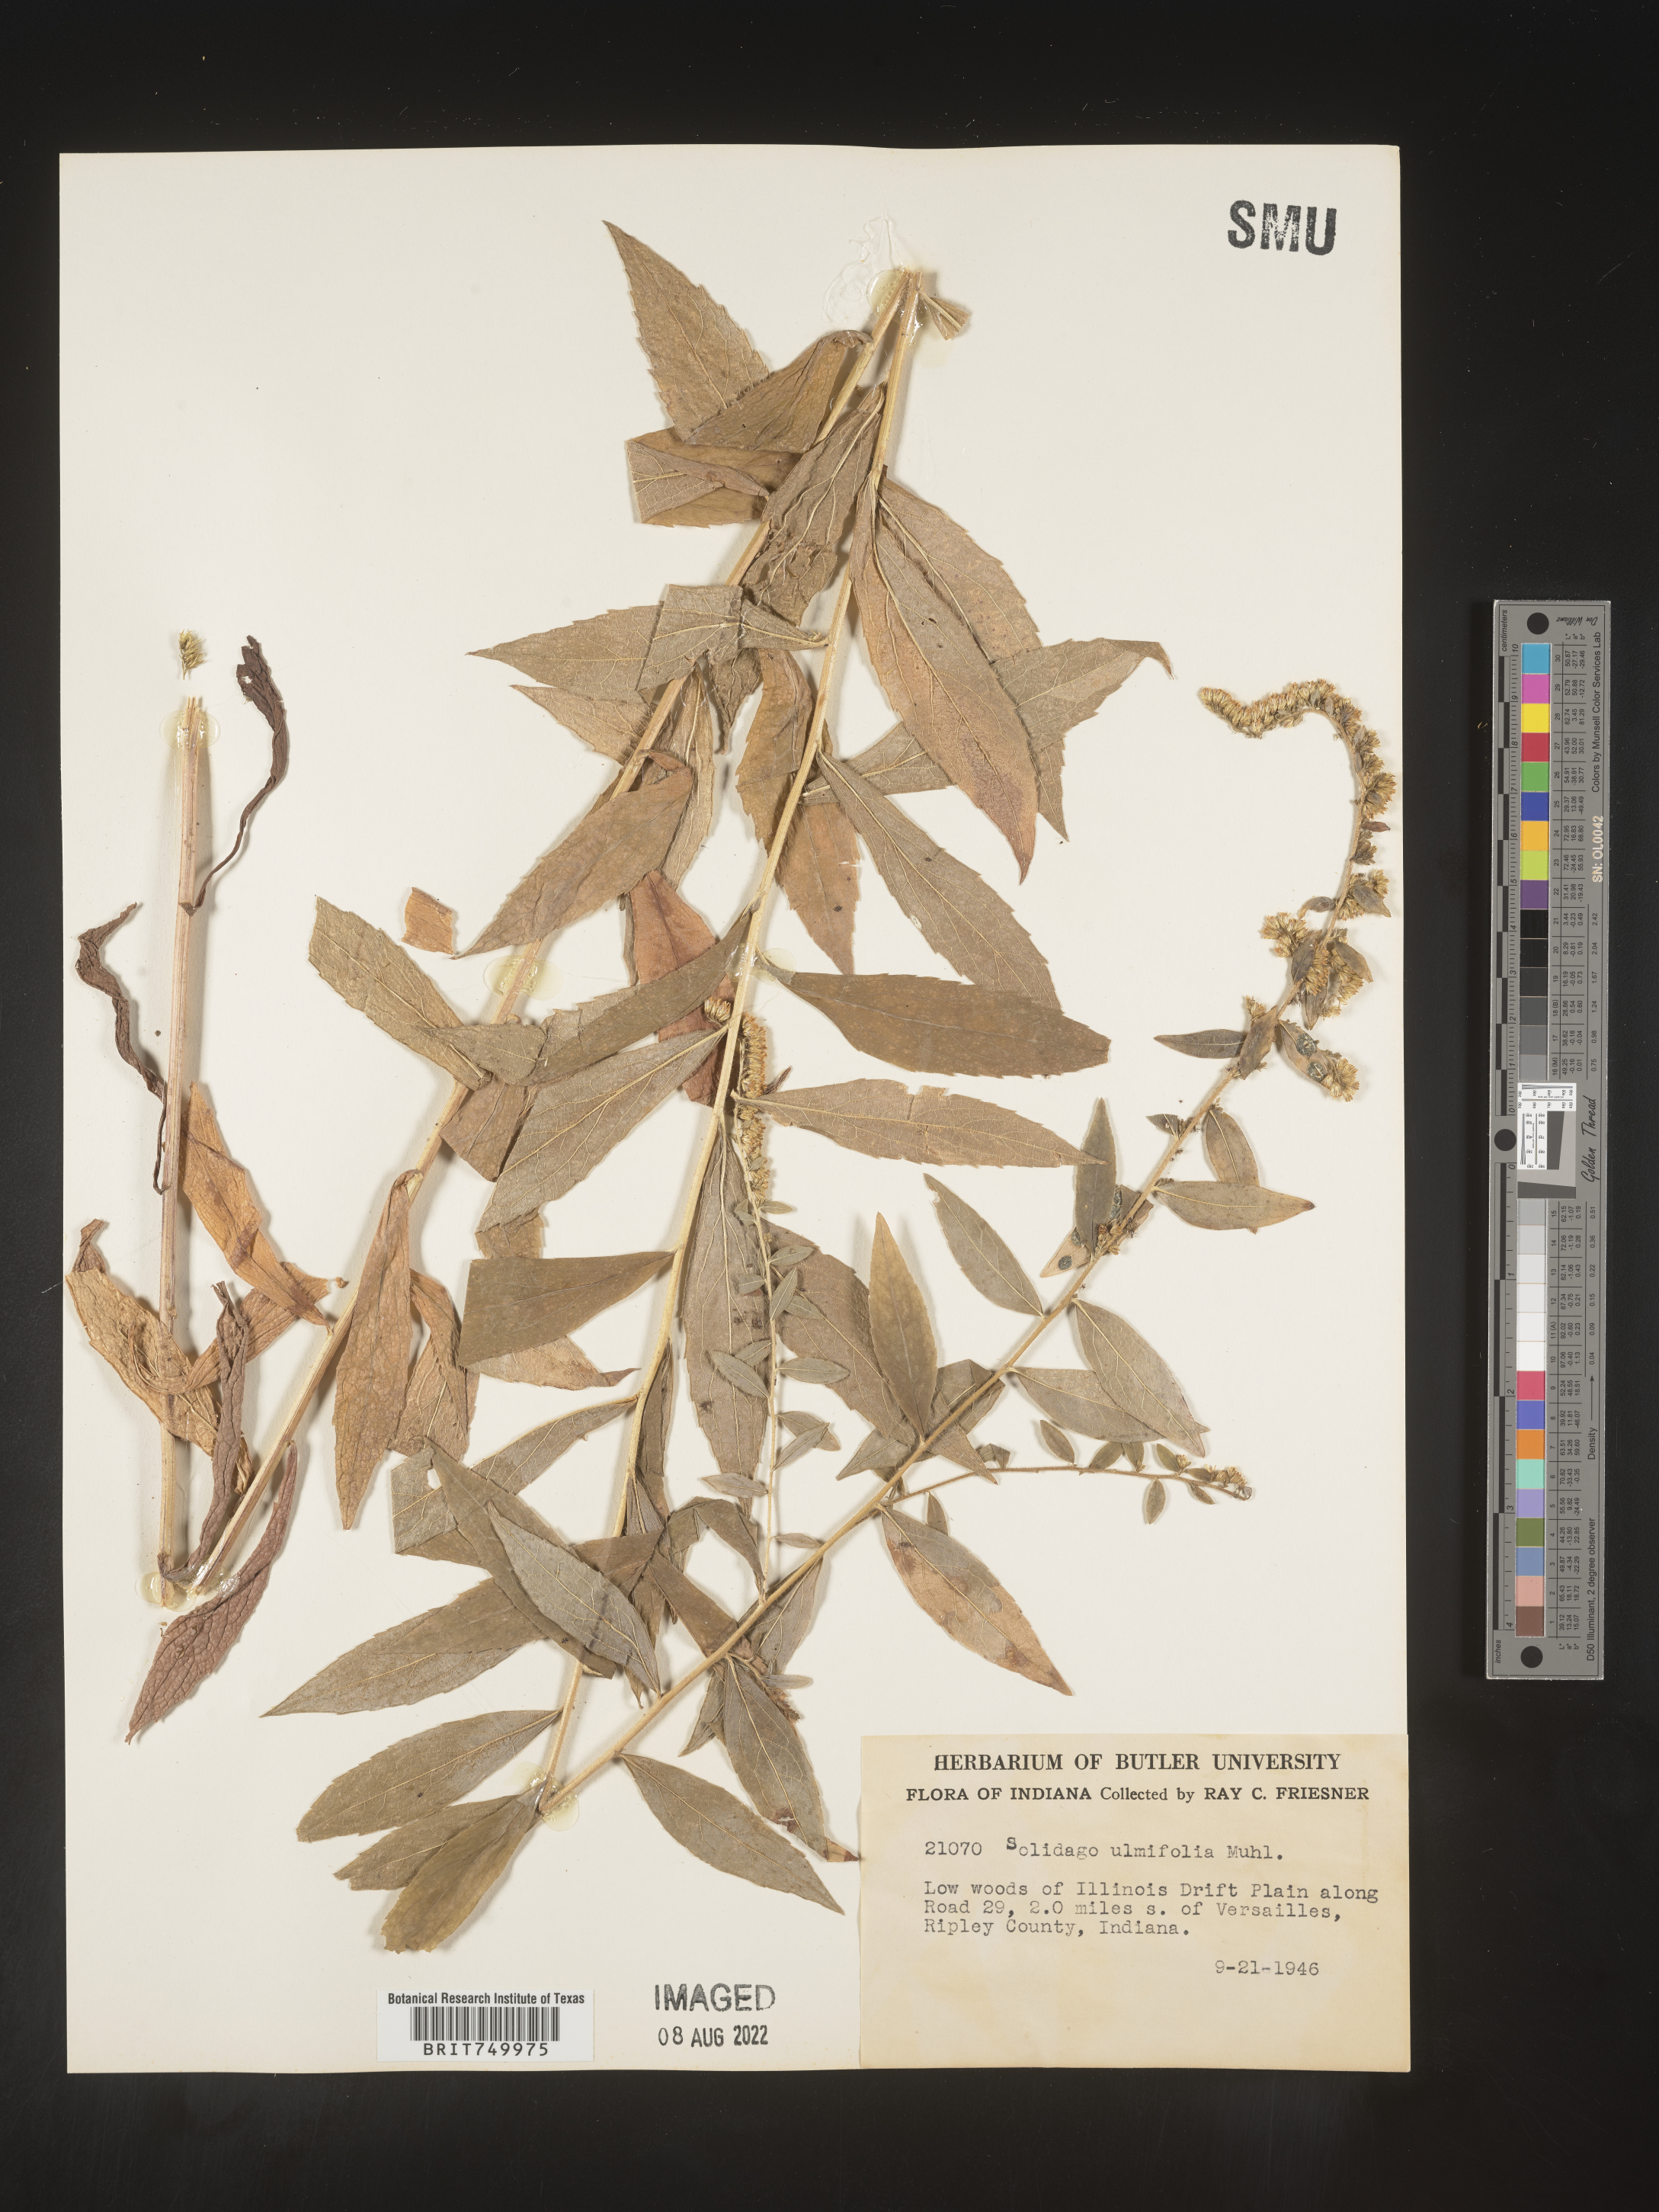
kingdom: Plantae
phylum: Tracheophyta
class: Magnoliopsida
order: Asterales
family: Asteraceae
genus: Solidago
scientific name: Solidago ulmifolia
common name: Elm-leaf goldenrod
